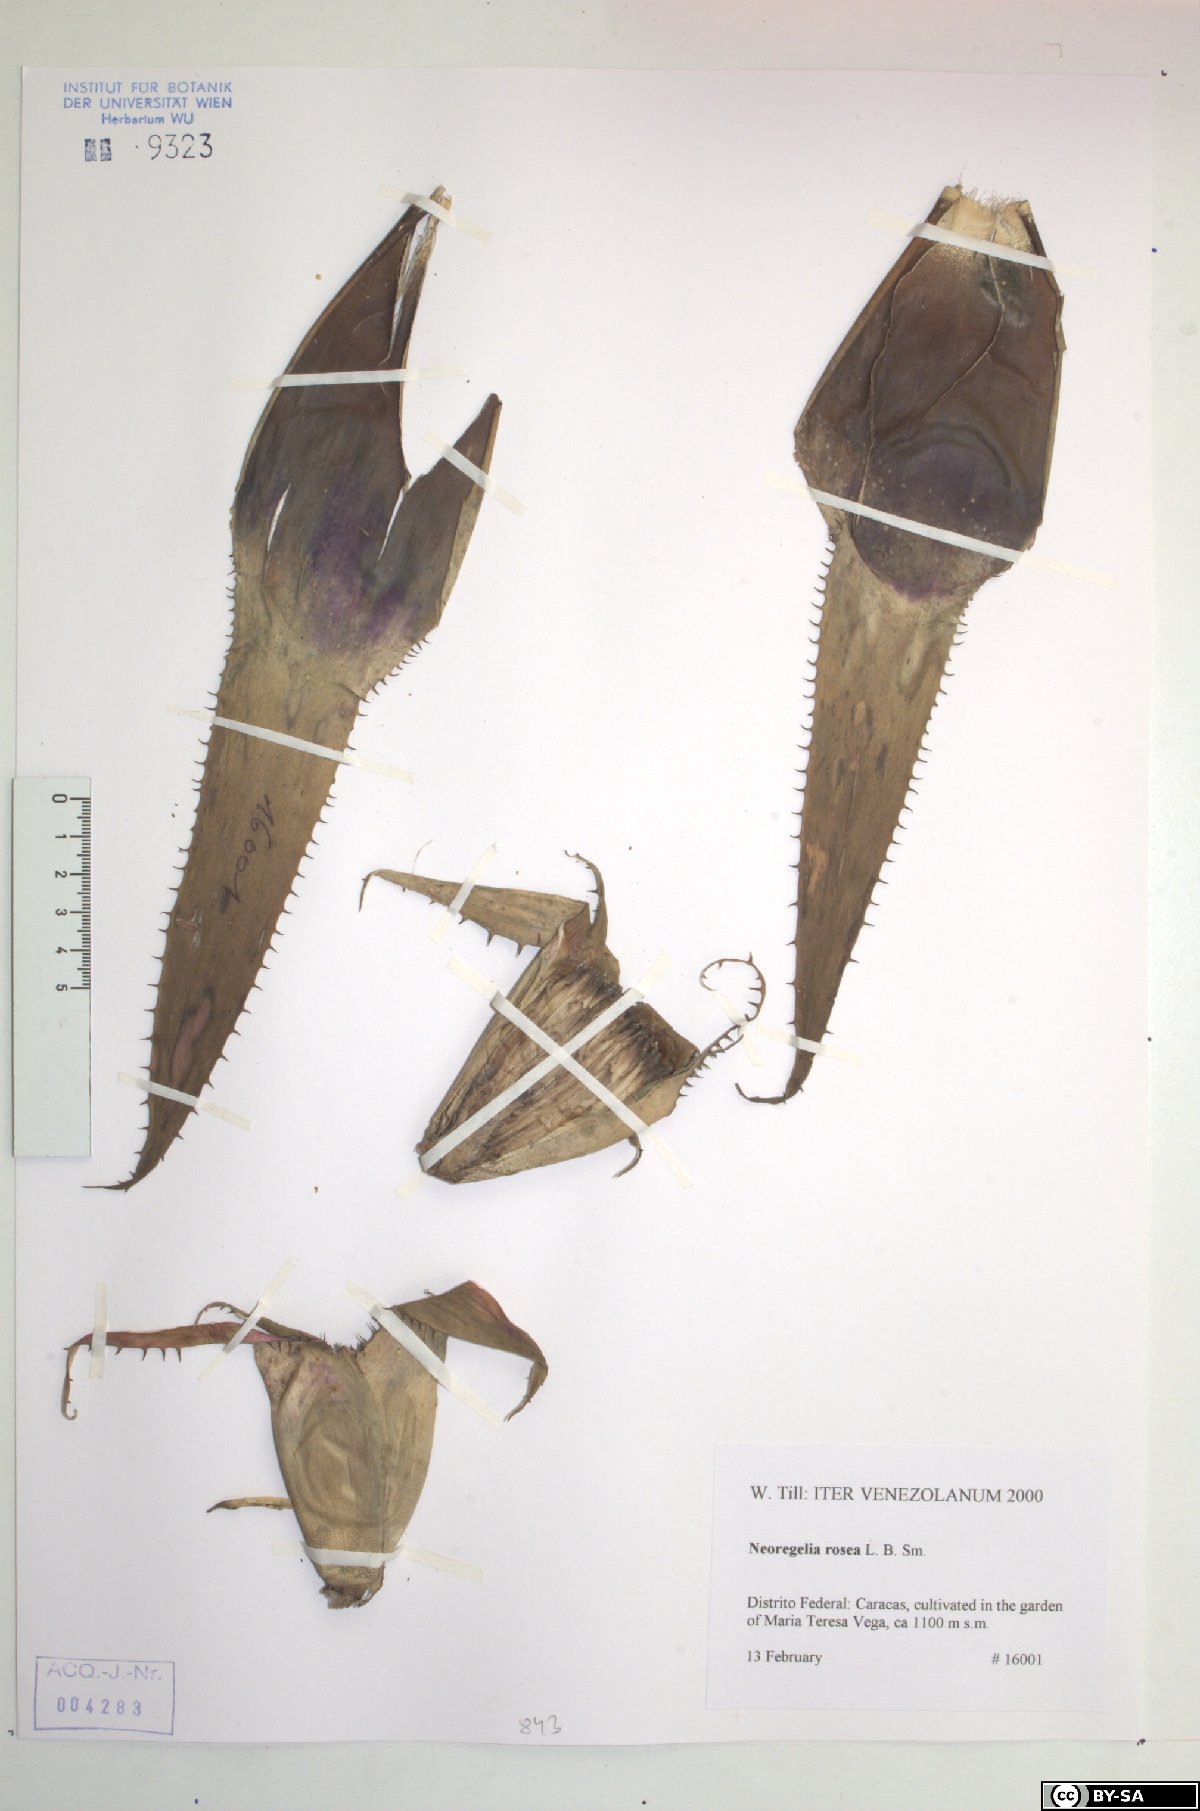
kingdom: Plantae
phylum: Tracheophyta
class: Liliopsida
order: Poales
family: Bromeliaceae
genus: Hylaeaicum
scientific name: Hylaeaicum roseum
